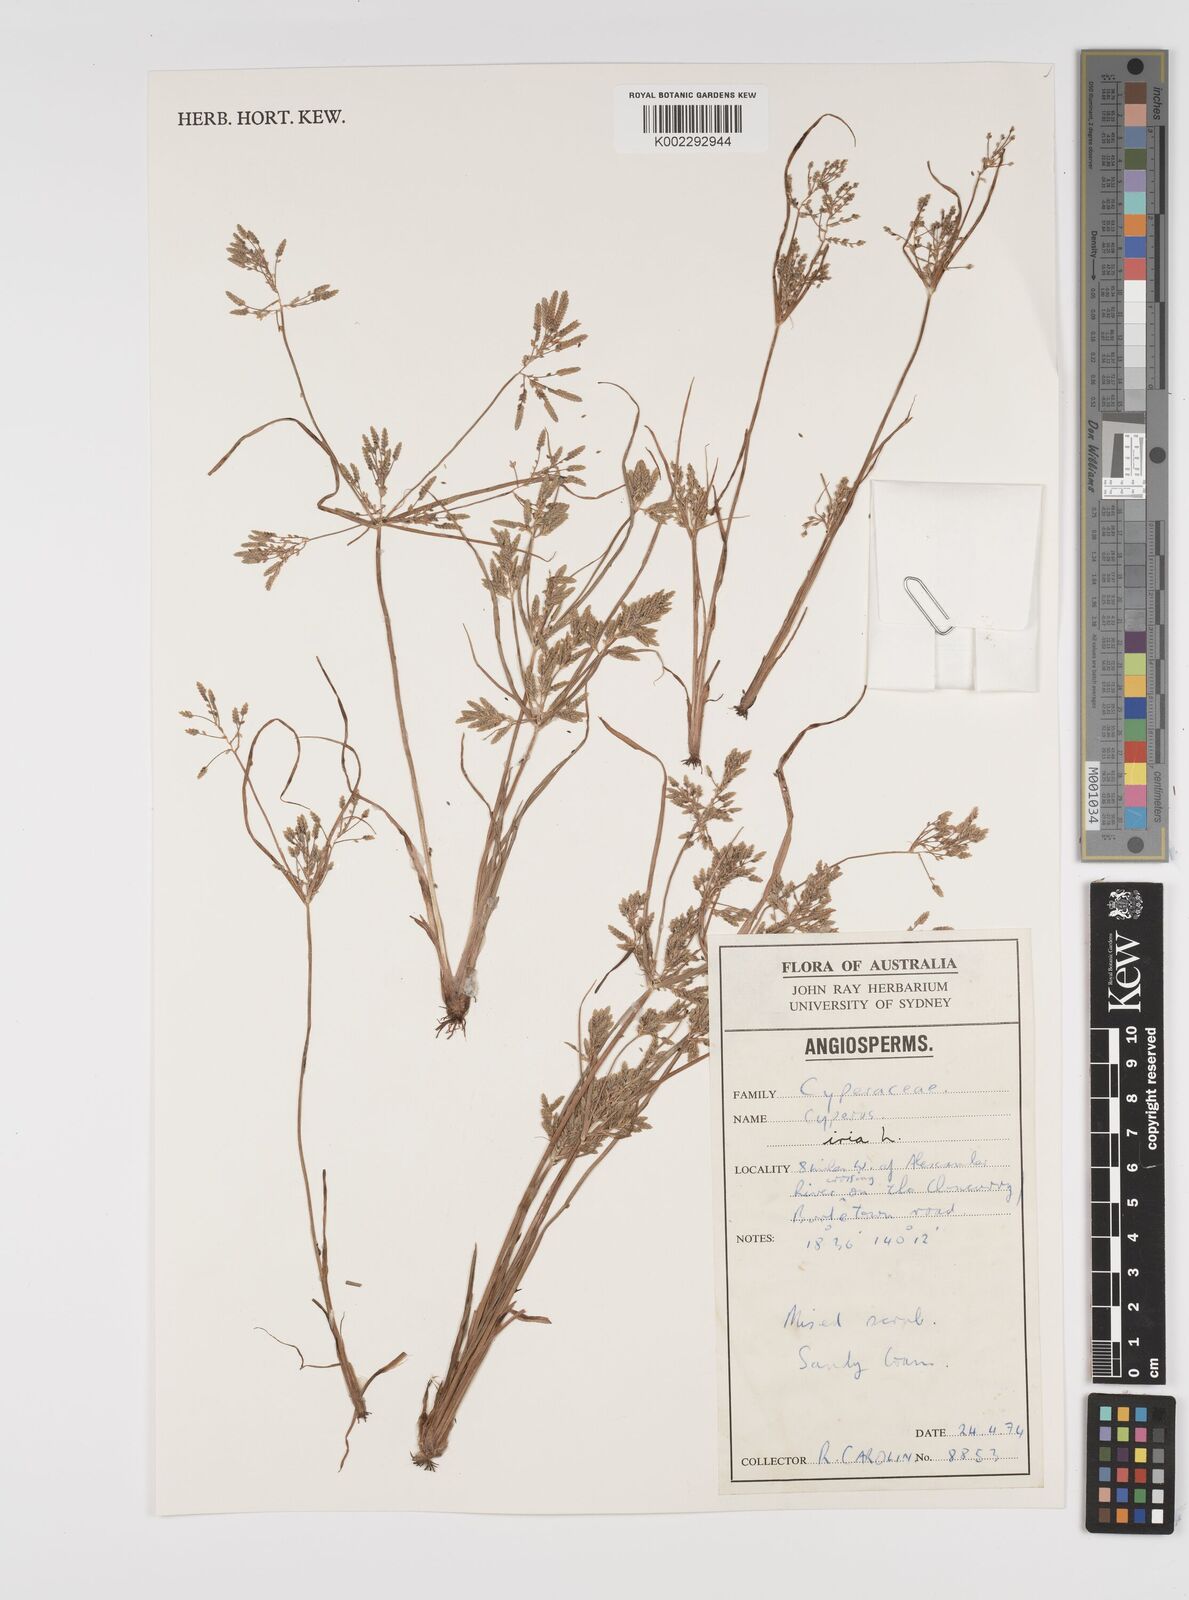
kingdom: Plantae
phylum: Tracheophyta
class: Liliopsida
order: Poales
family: Cyperaceae
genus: Cyperus
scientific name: Cyperus iria
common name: Ricefield flatsedge
